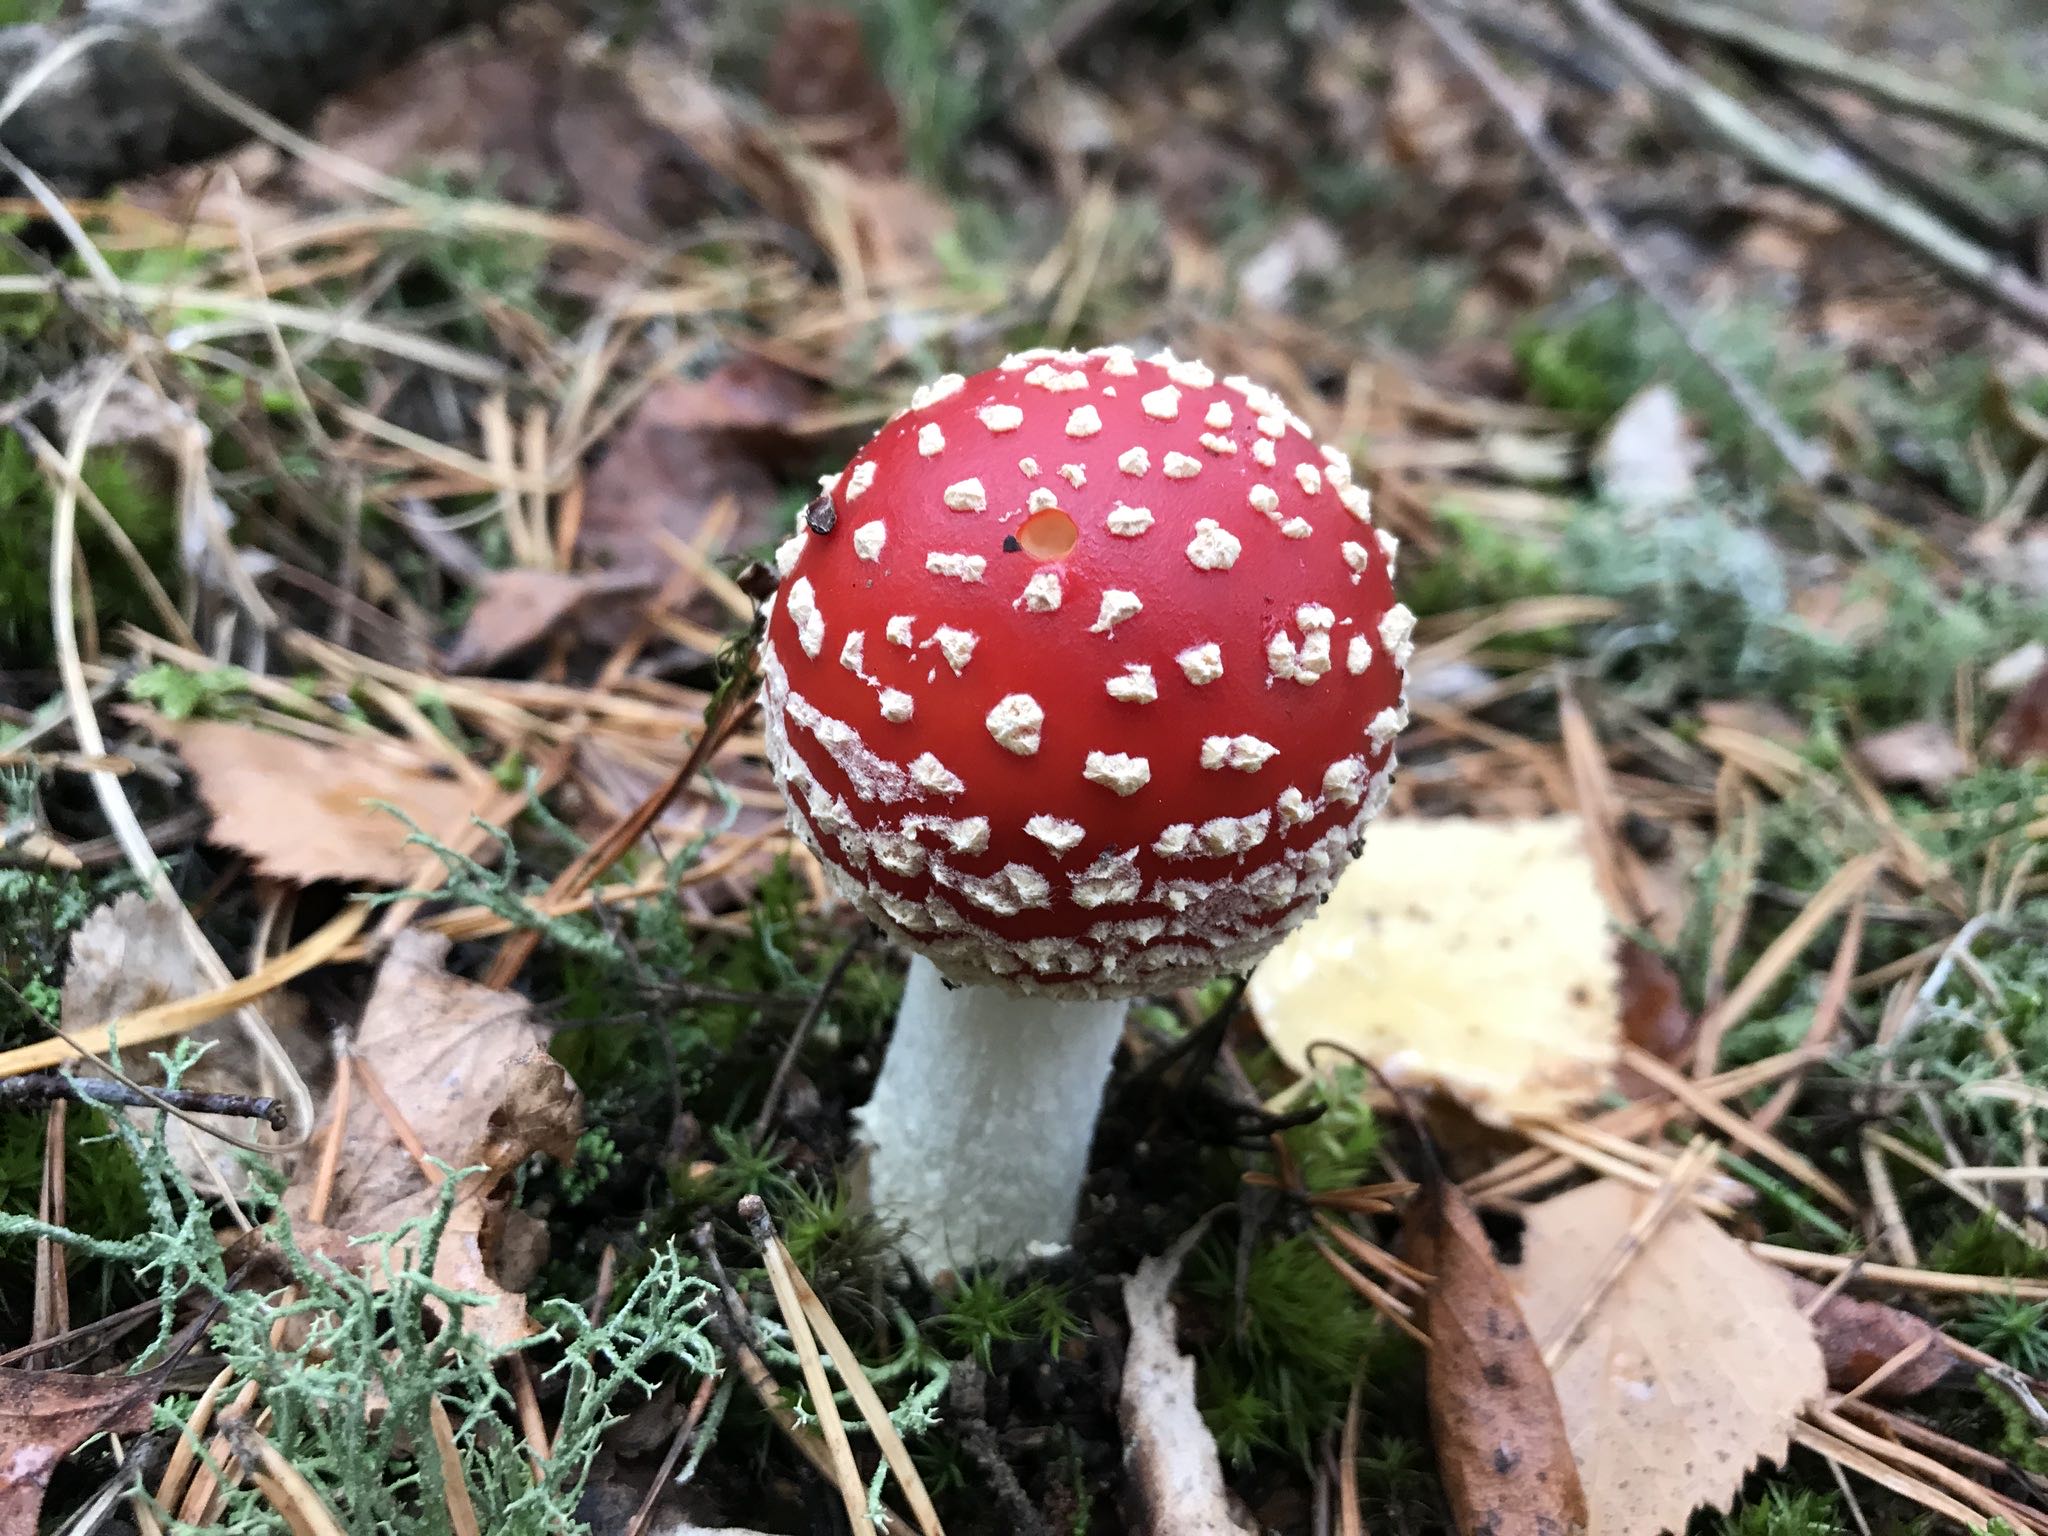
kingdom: Fungi
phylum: Basidiomycota
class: Agaricomycetes
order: Agaricales
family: Amanitaceae
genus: Amanita
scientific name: Amanita muscaria
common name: rød fluesvamp
